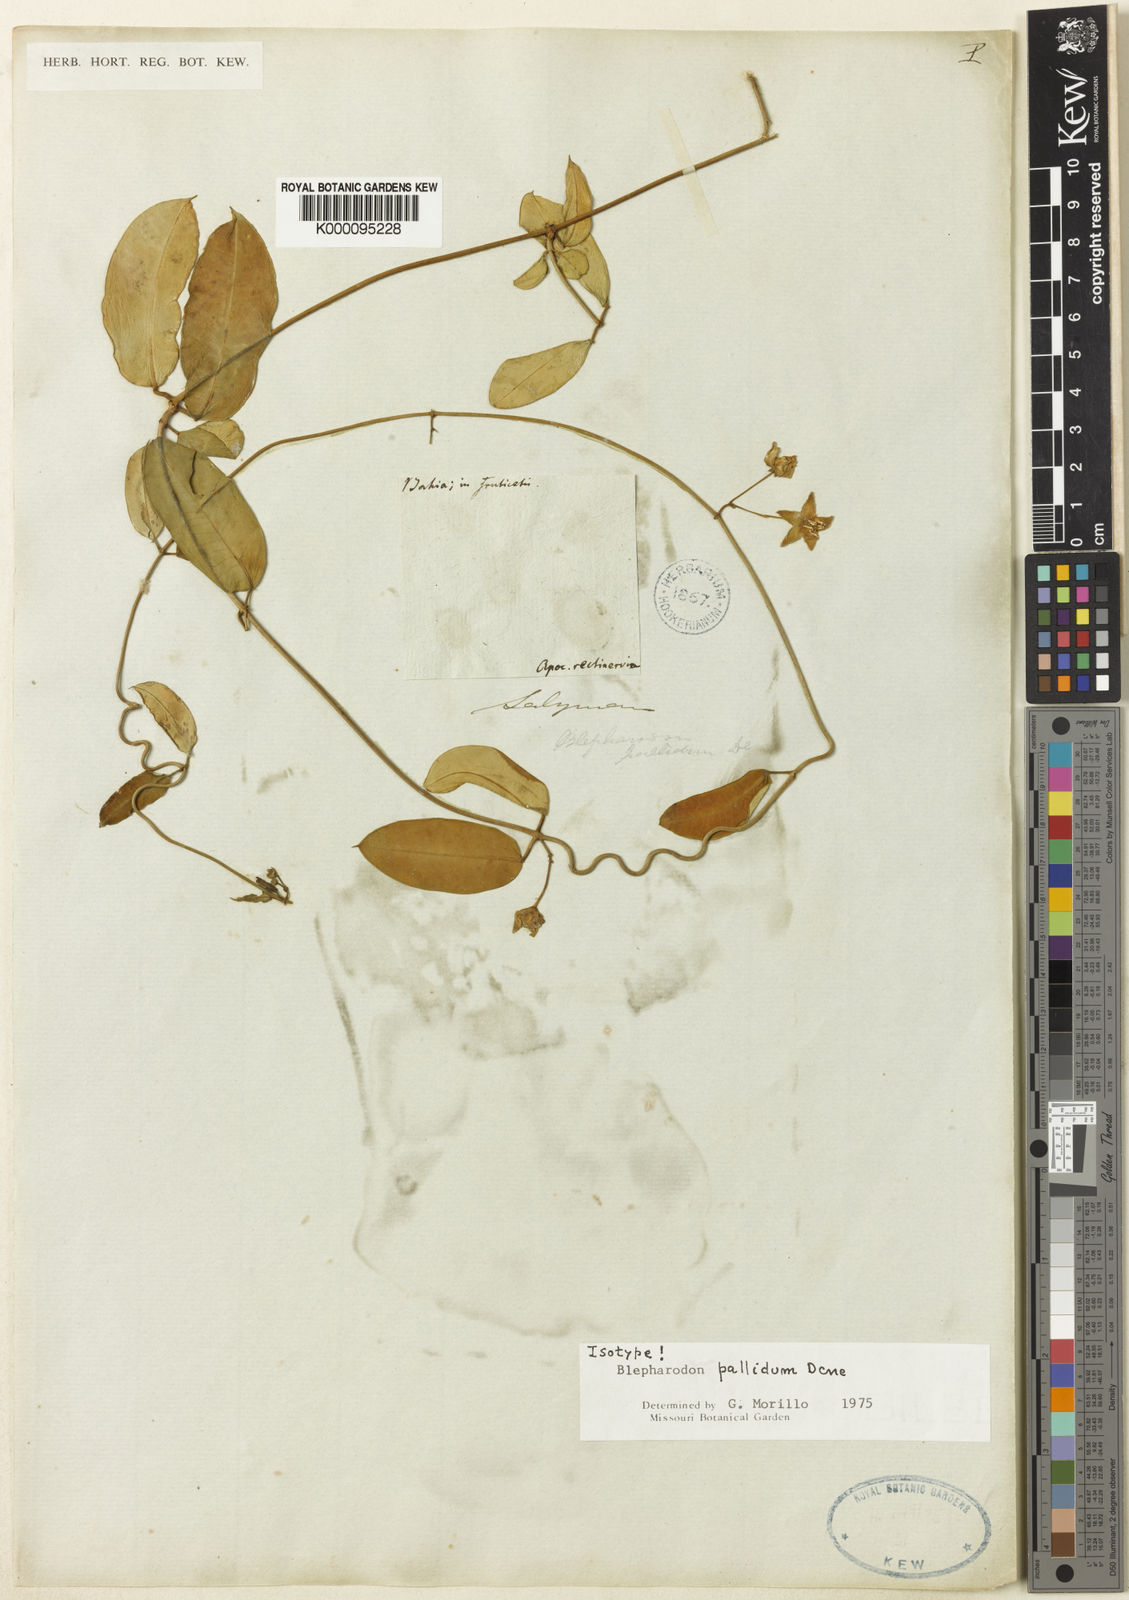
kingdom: Plantae
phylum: Tracheophyta
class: Magnoliopsida
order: Gentianales
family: Apocynaceae
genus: Blepharodon
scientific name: Blepharodon pictum
